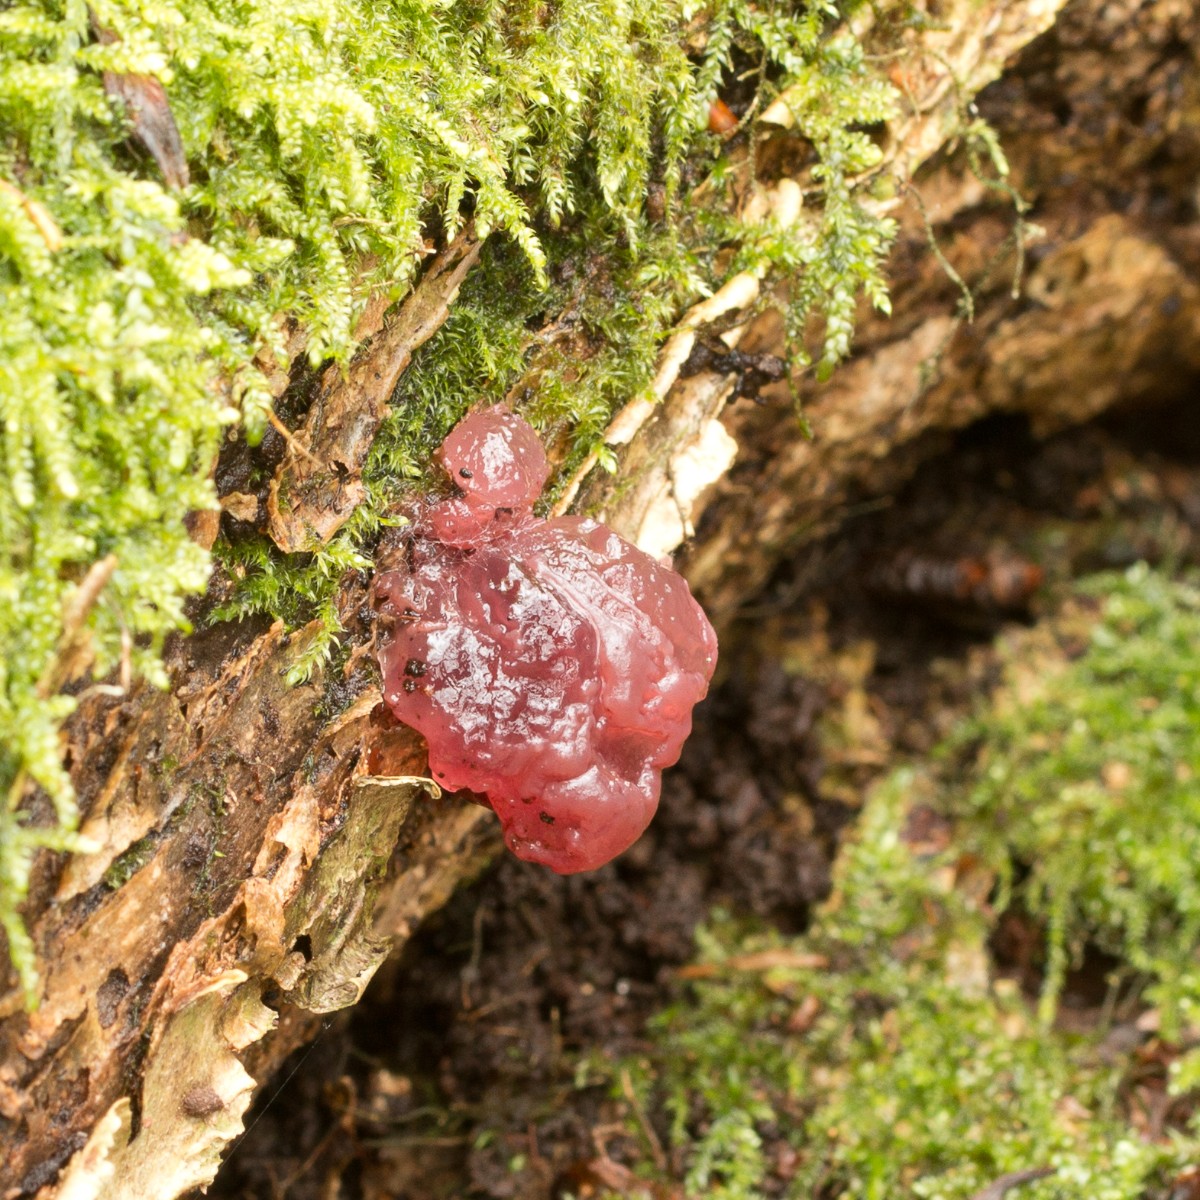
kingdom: Fungi
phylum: Ascomycota
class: Leotiomycetes
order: Helotiales
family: Helotiaceae
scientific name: Helotiaceae
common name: stilkskivefamilien
